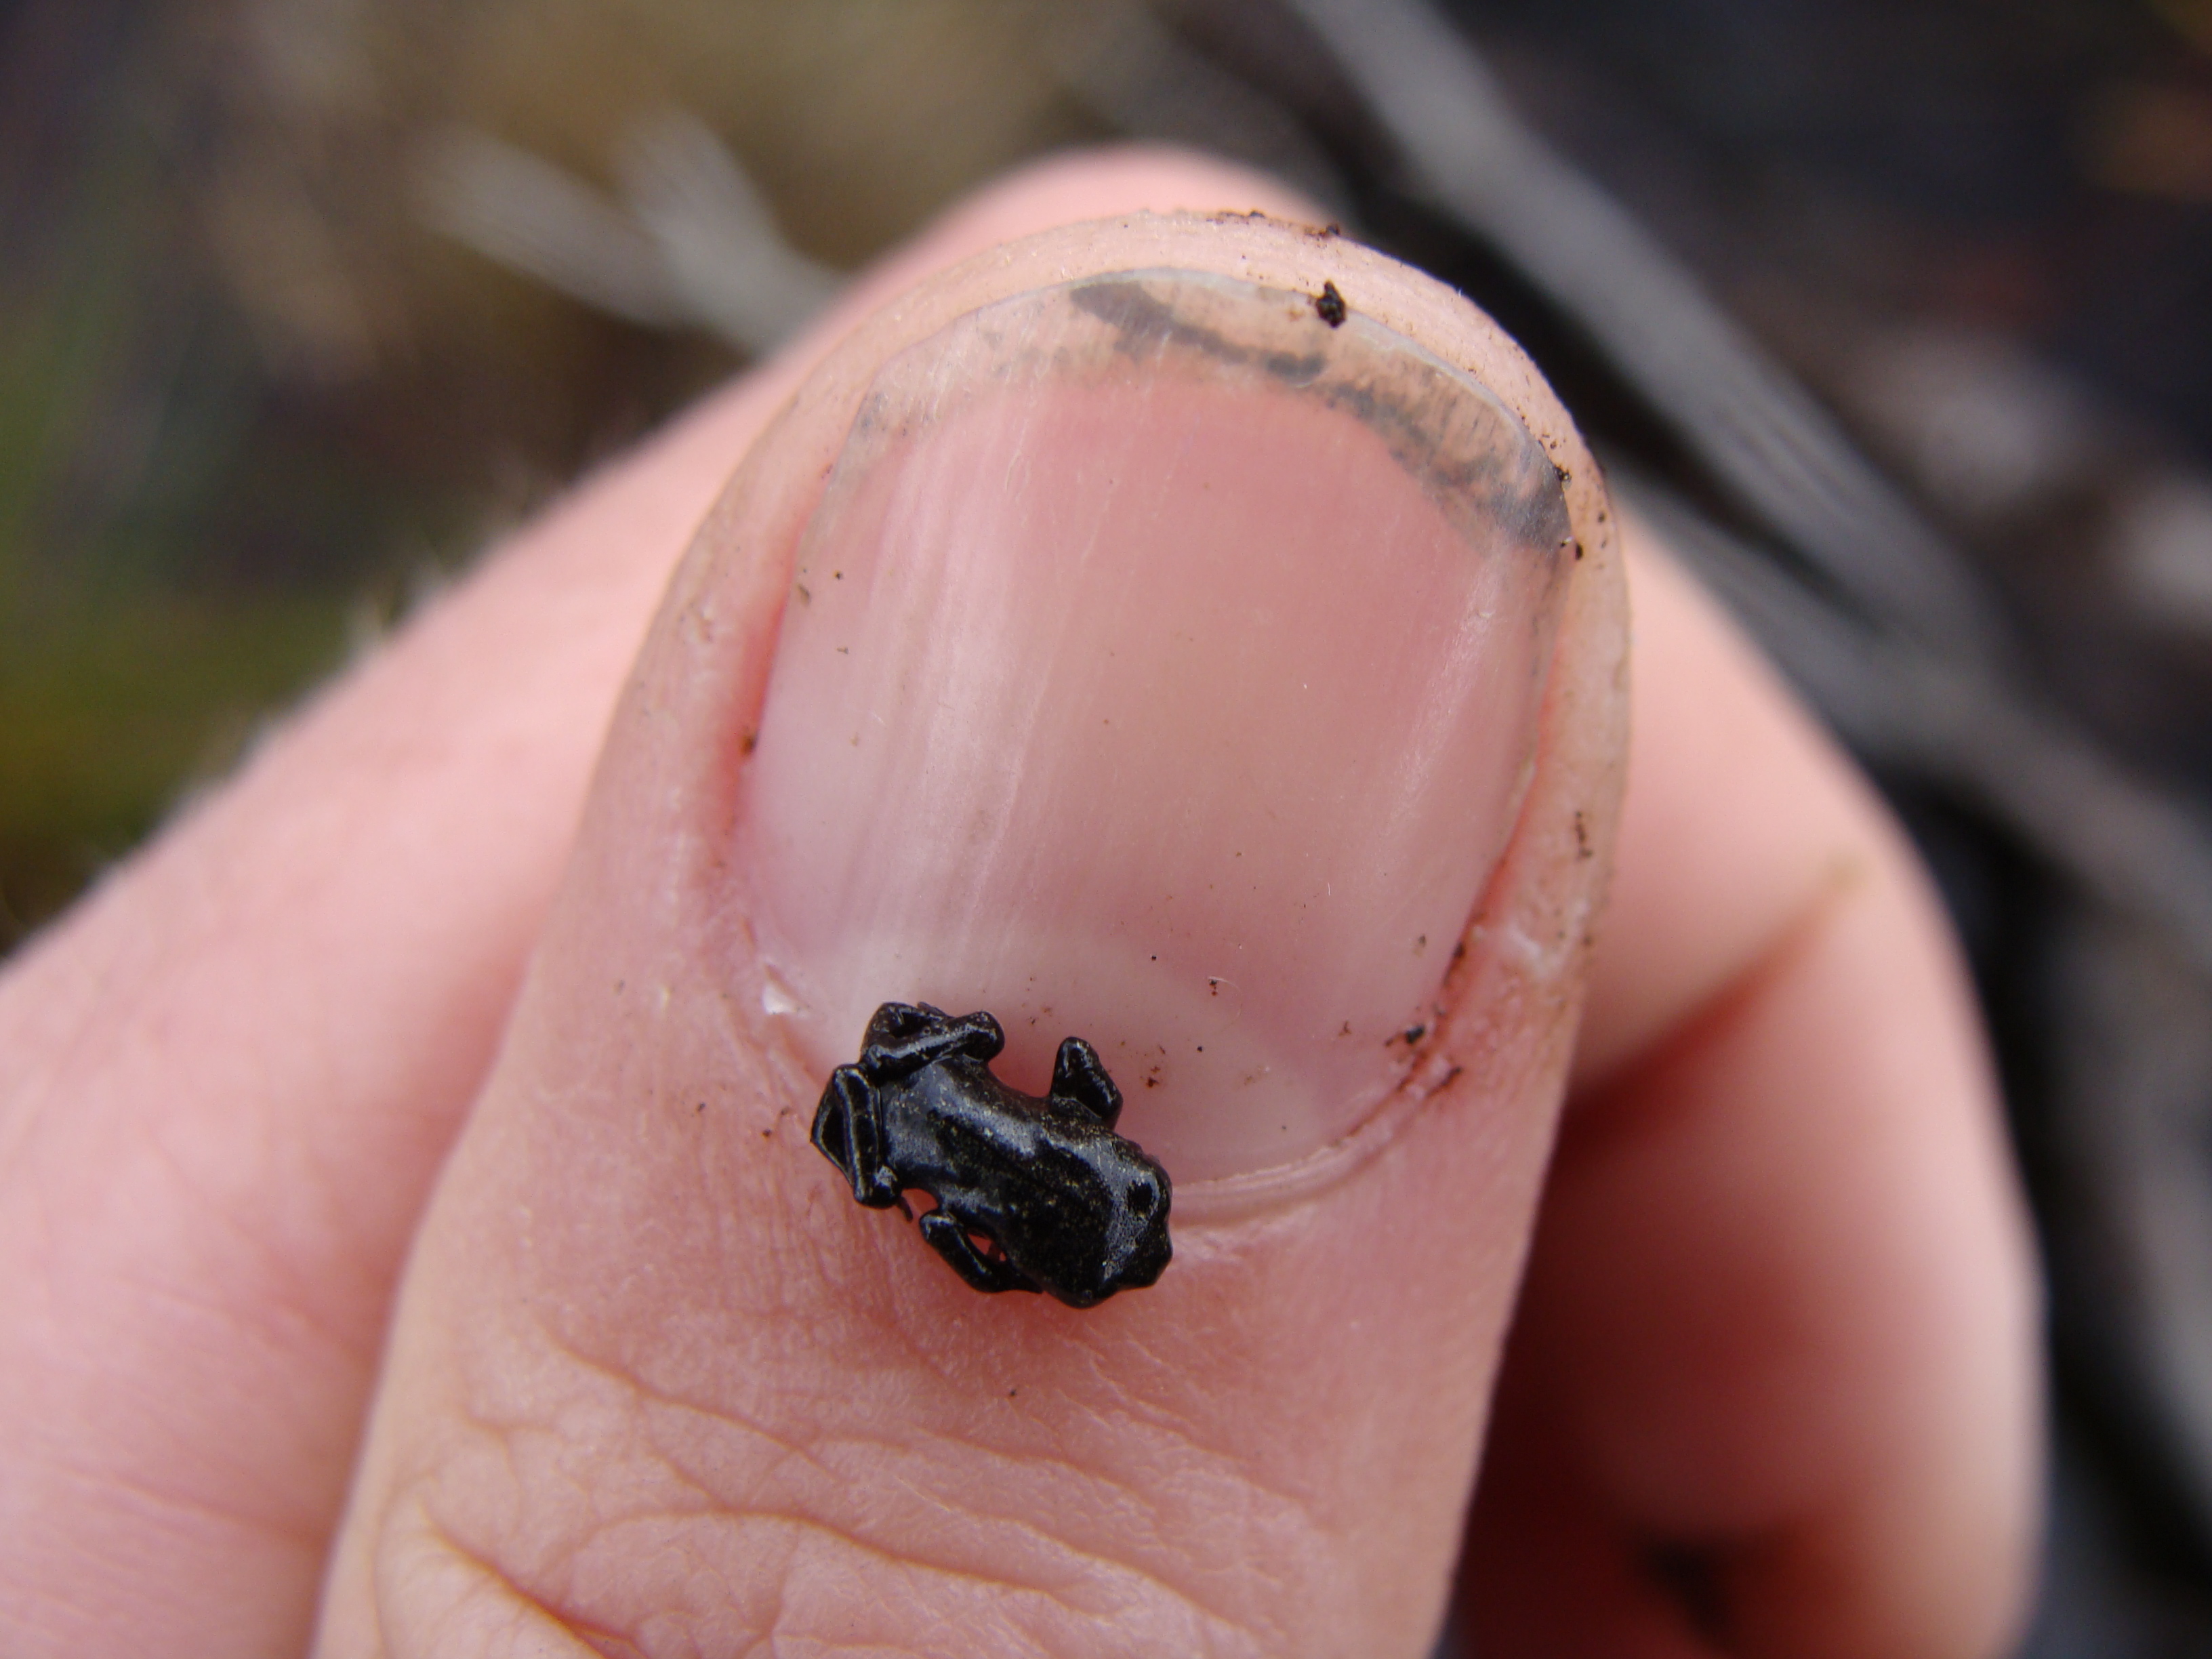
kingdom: Animalia
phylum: Chordata
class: Amphibia
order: Anura
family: Bufonidae
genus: Capensibufo
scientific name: Capensibufo rosei
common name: Cape mountain toad
